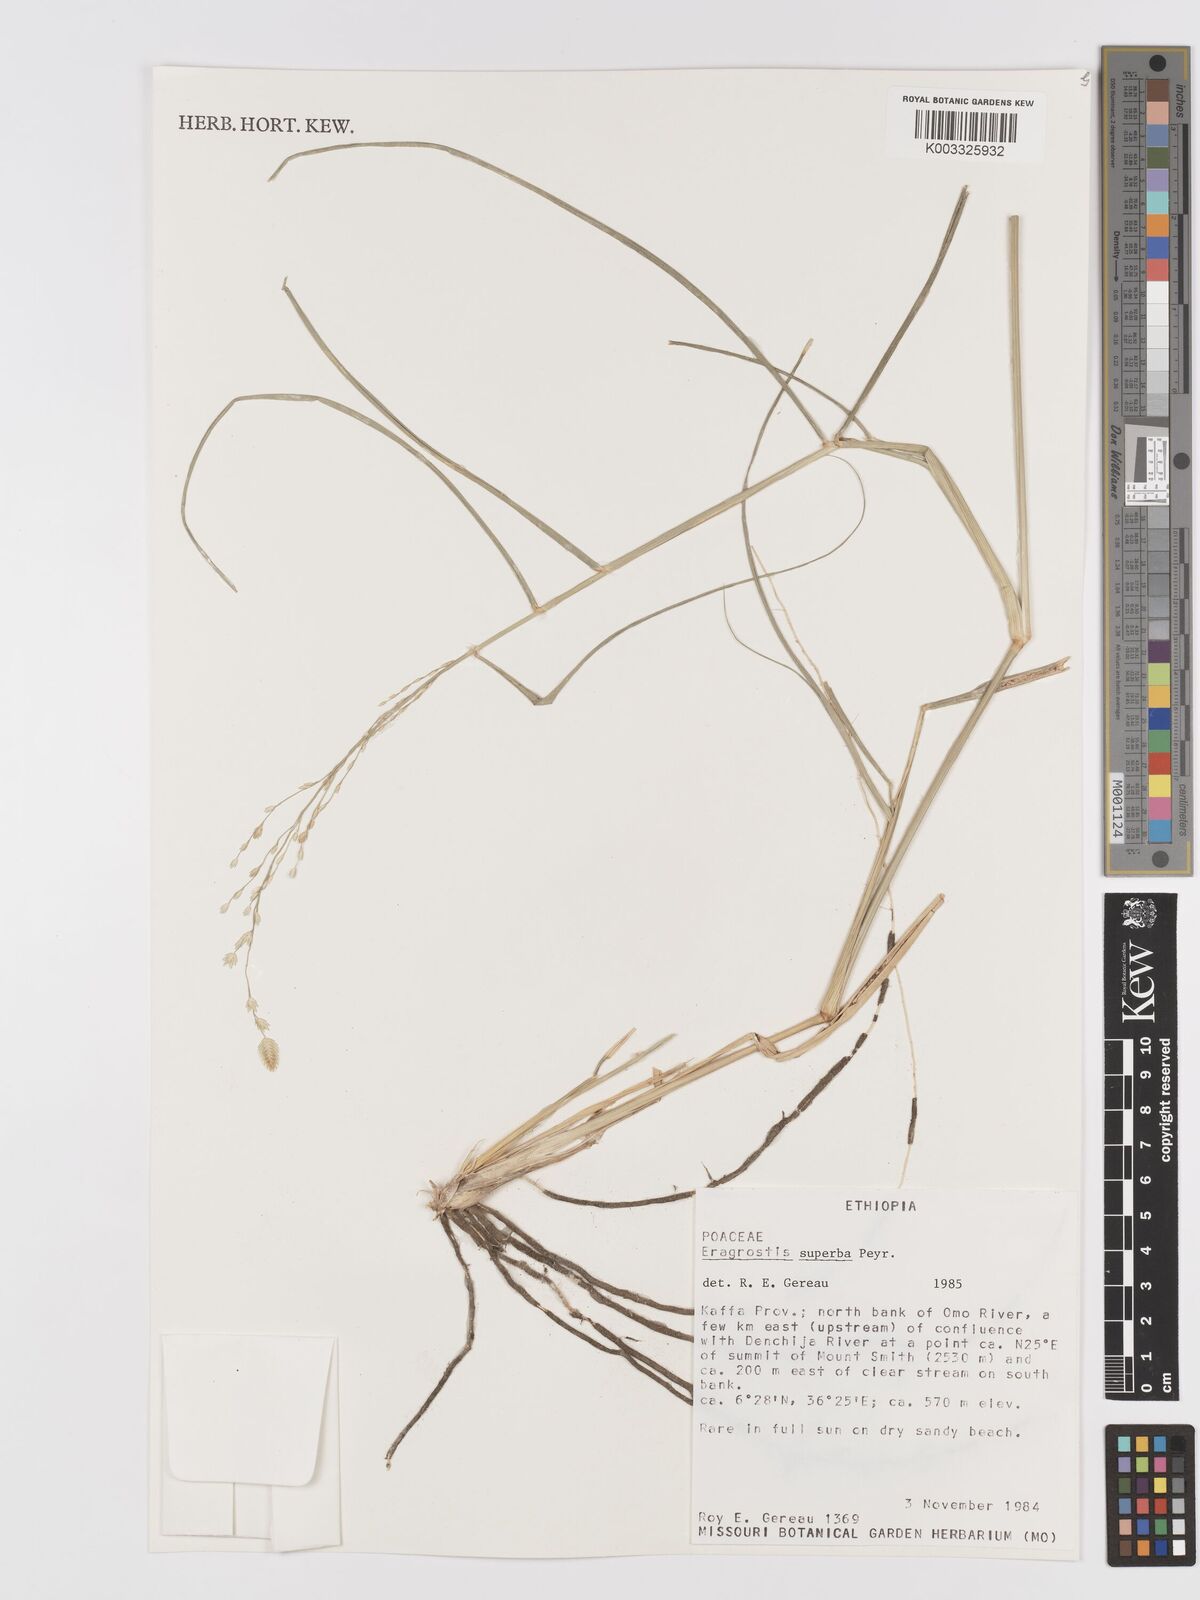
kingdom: Plantae
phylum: Tracheophyta
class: Liliopsida
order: Poales
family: Poaceae
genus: Eragrostis
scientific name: Eragrostis superba
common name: Wilman lovegrass
